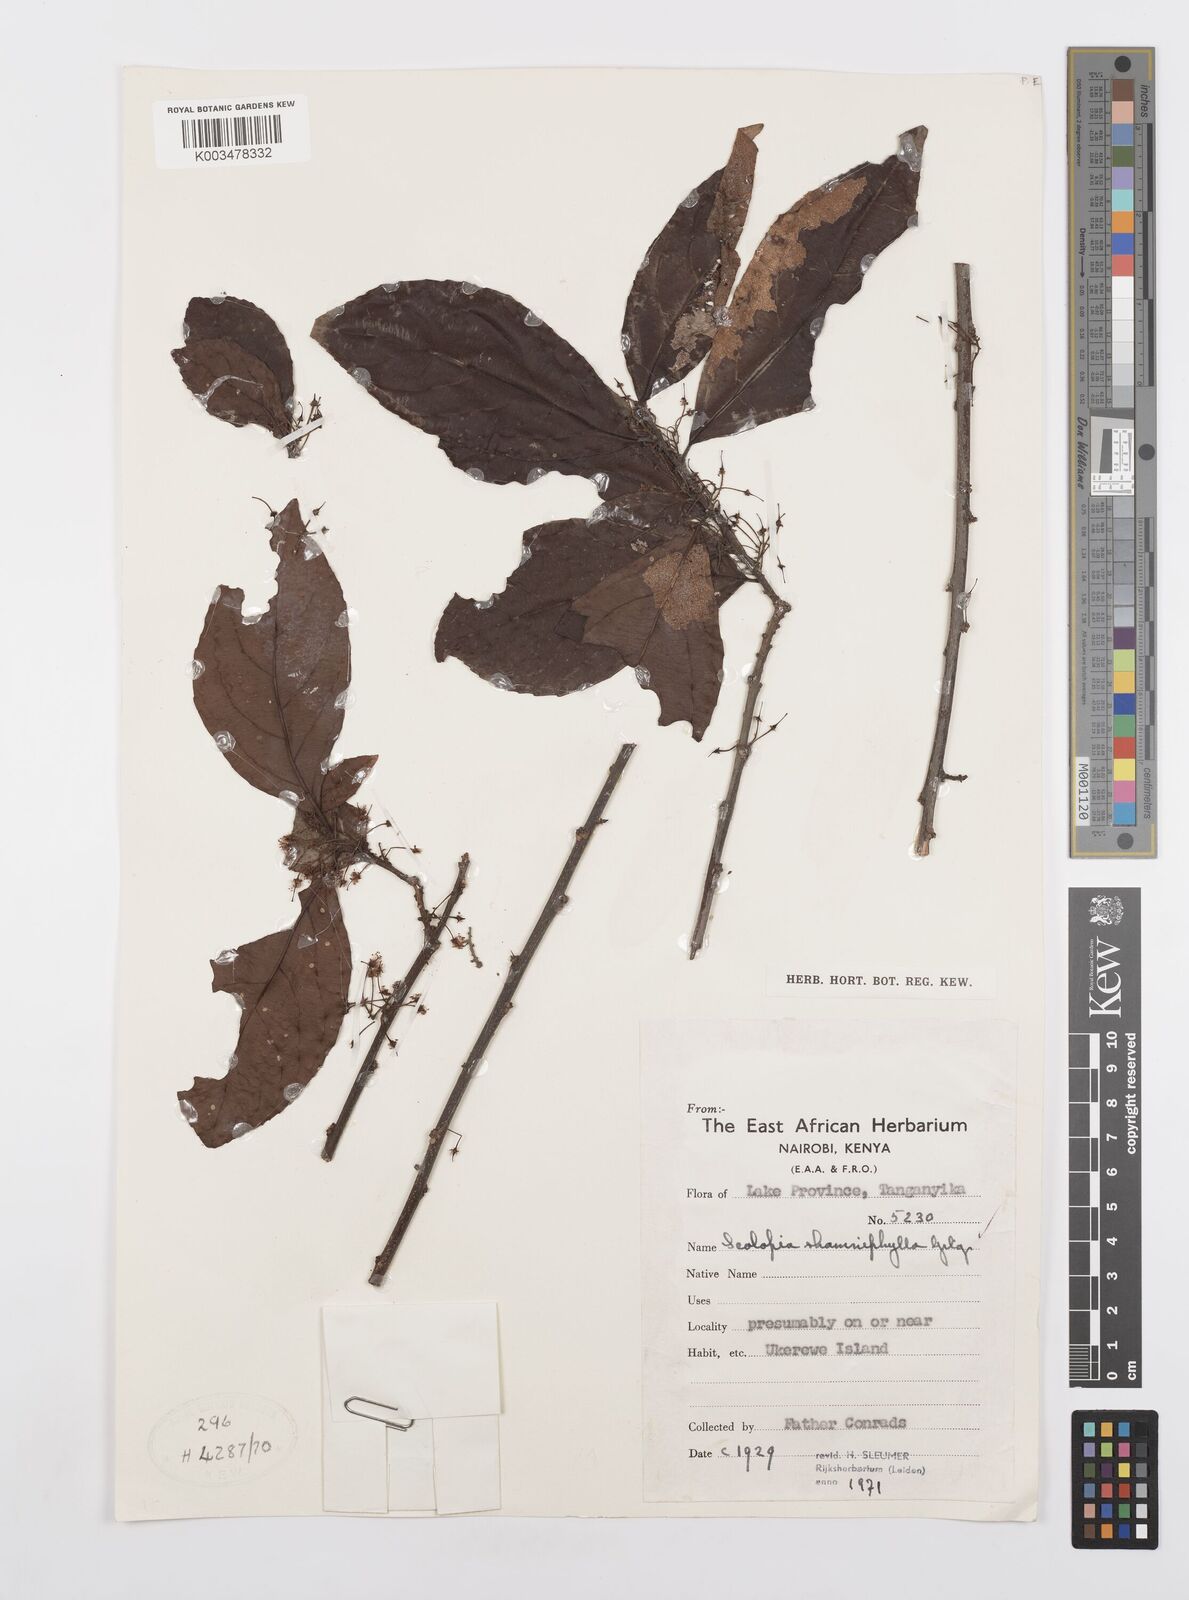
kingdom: Plantae
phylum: Tracheophyta
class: Magnoliopsida
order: Malpighiales
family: Salicaceae
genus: Scolopia
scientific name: Scolopia rhamniphylla
